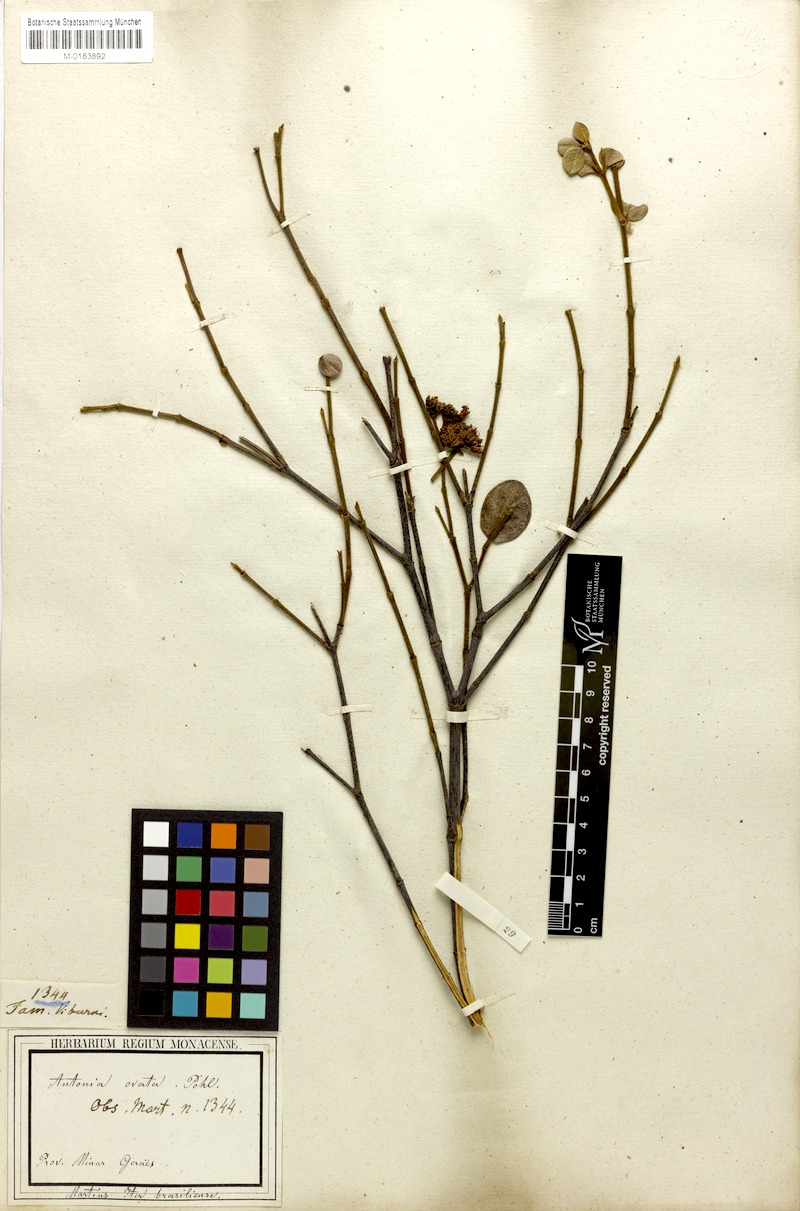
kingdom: Plantae
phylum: Tracheophyta
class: Magnoliopsida
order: Gentianales
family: Loganiaceae
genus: Antonia
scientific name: Antonia ovata
